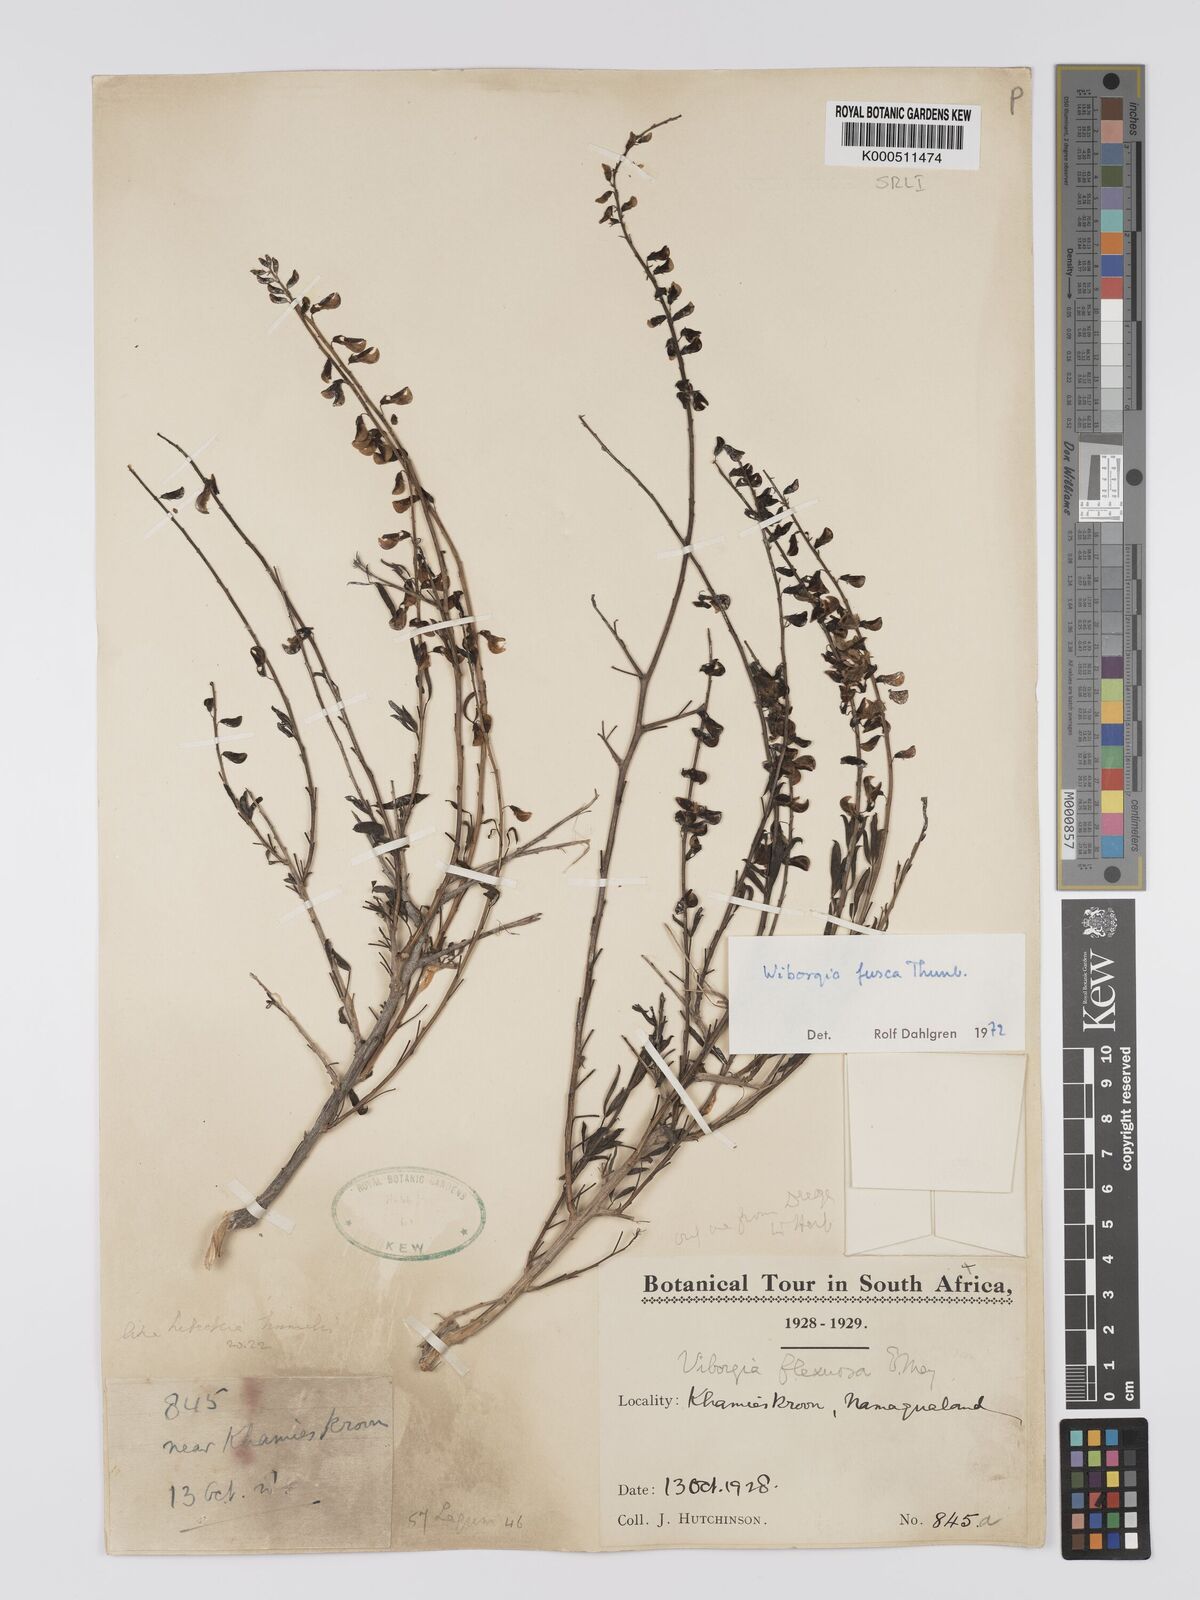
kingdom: Plantae
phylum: Tracheophyta
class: Magnoliopsida
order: Fabales
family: Fabaceae
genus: Wiborgia
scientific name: Wiborgia fusca
